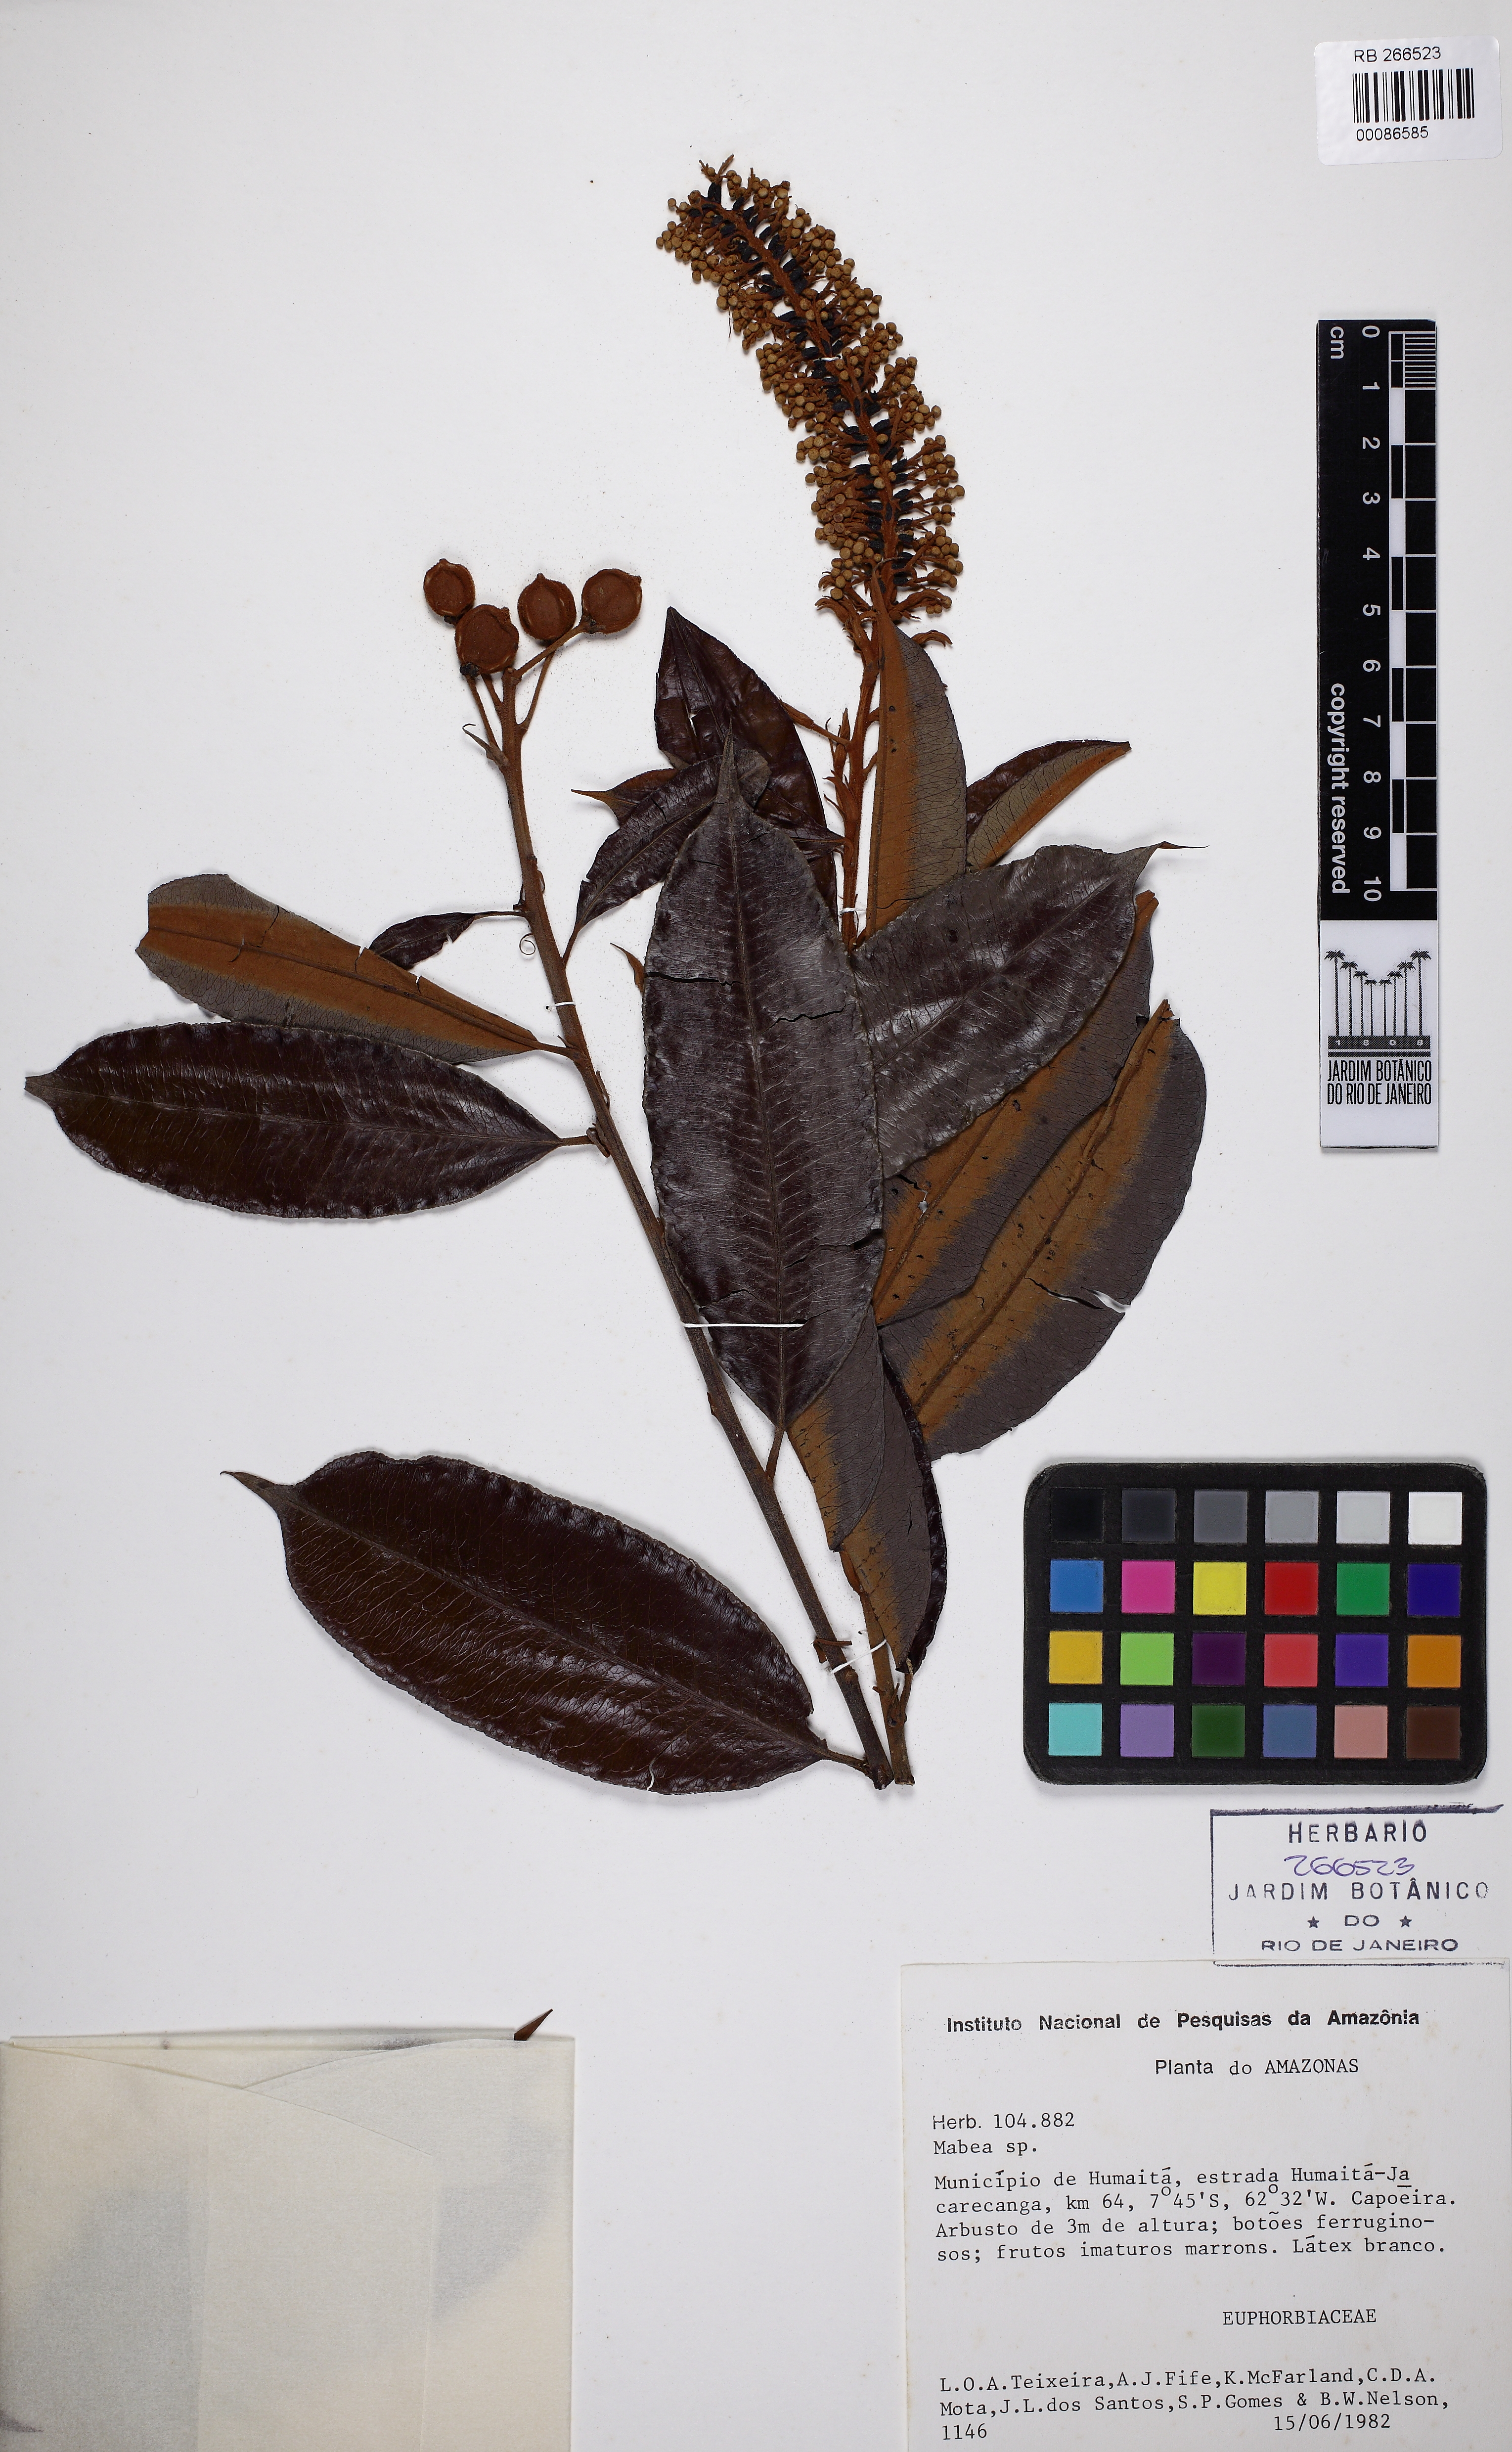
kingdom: Plantae
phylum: Tracheophyta
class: Magnoliopsida
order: Malpighiales
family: Euphorbiaceae
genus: Mabea
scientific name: Mabea fistulifera
